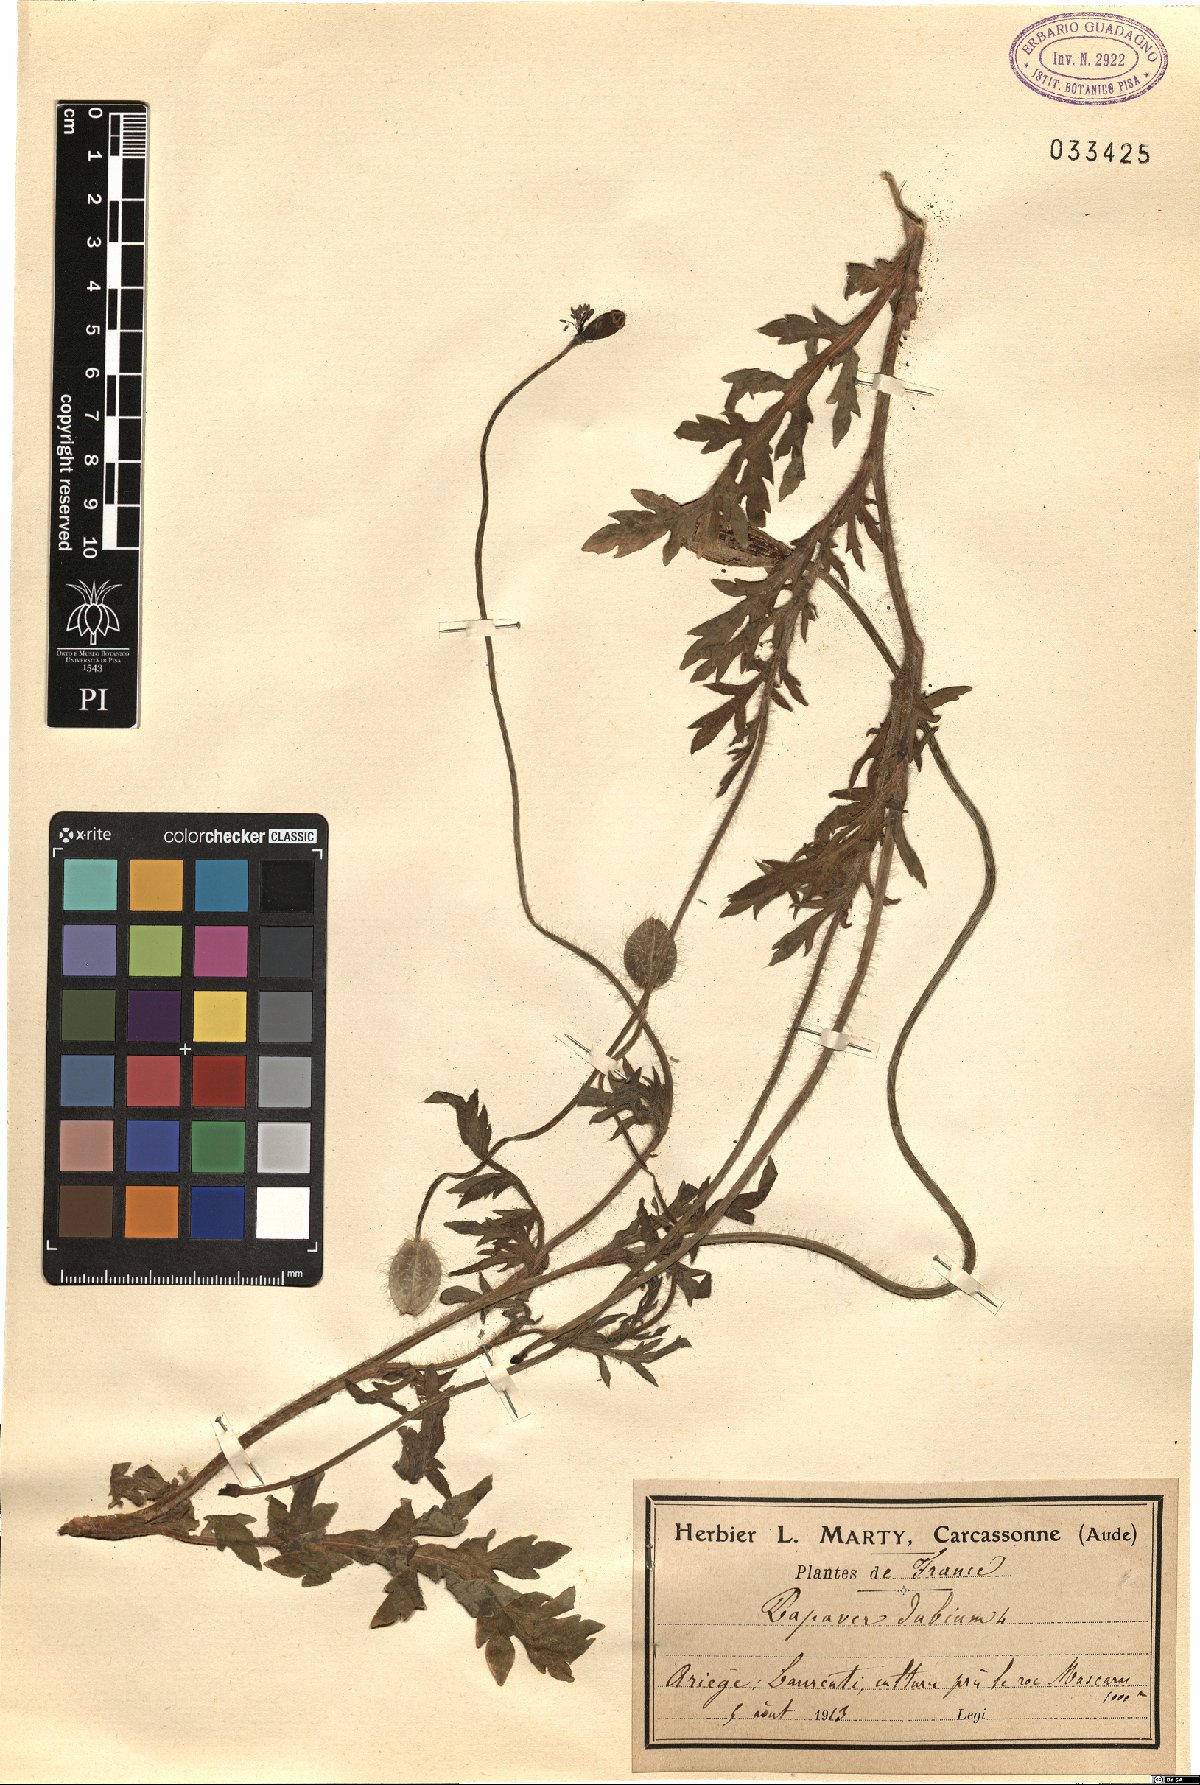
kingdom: Plantae
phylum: Tracheophyta
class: Magnoliopsida
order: Ranunculales
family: Papaveraceae
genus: Papaver
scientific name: Papaver dubium
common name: Long-headed poppy
